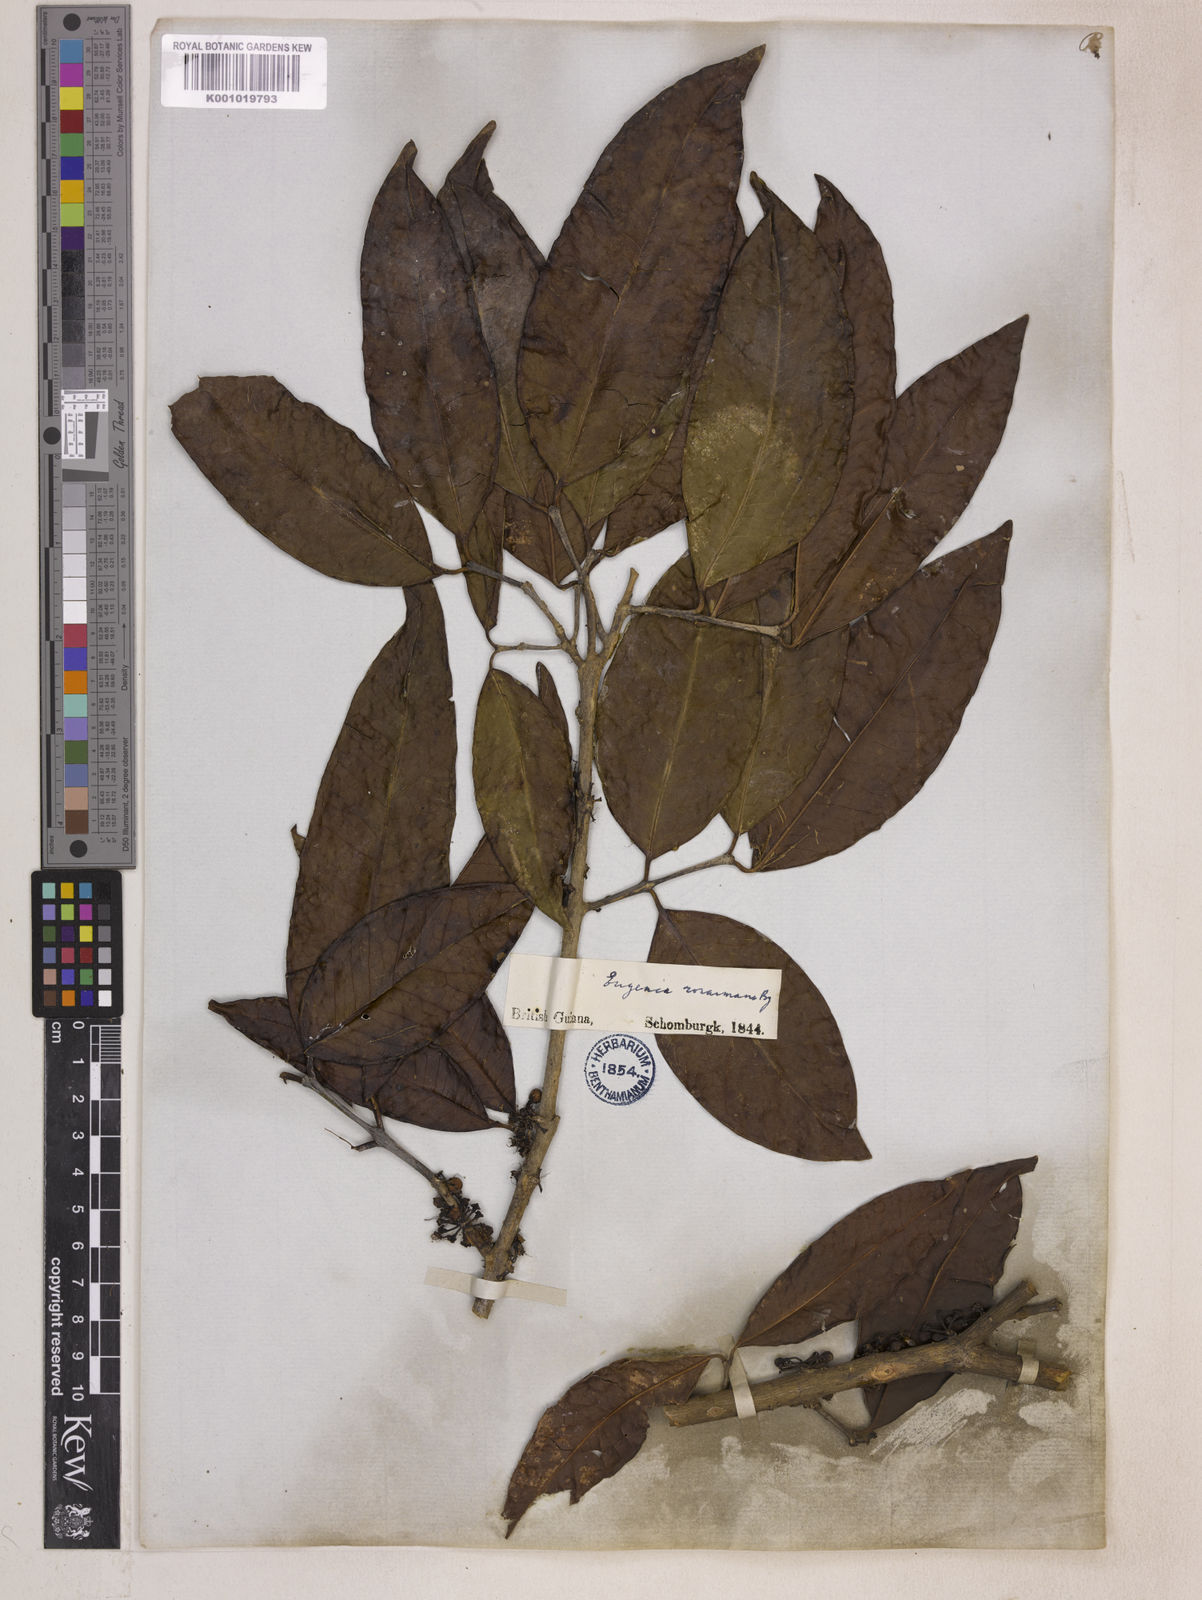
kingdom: Plantae
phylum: Tracheophyta
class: Magnoliopsida
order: Myrtales
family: Myrtaceae
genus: Eugenia
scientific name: Eugenia stictopetala
